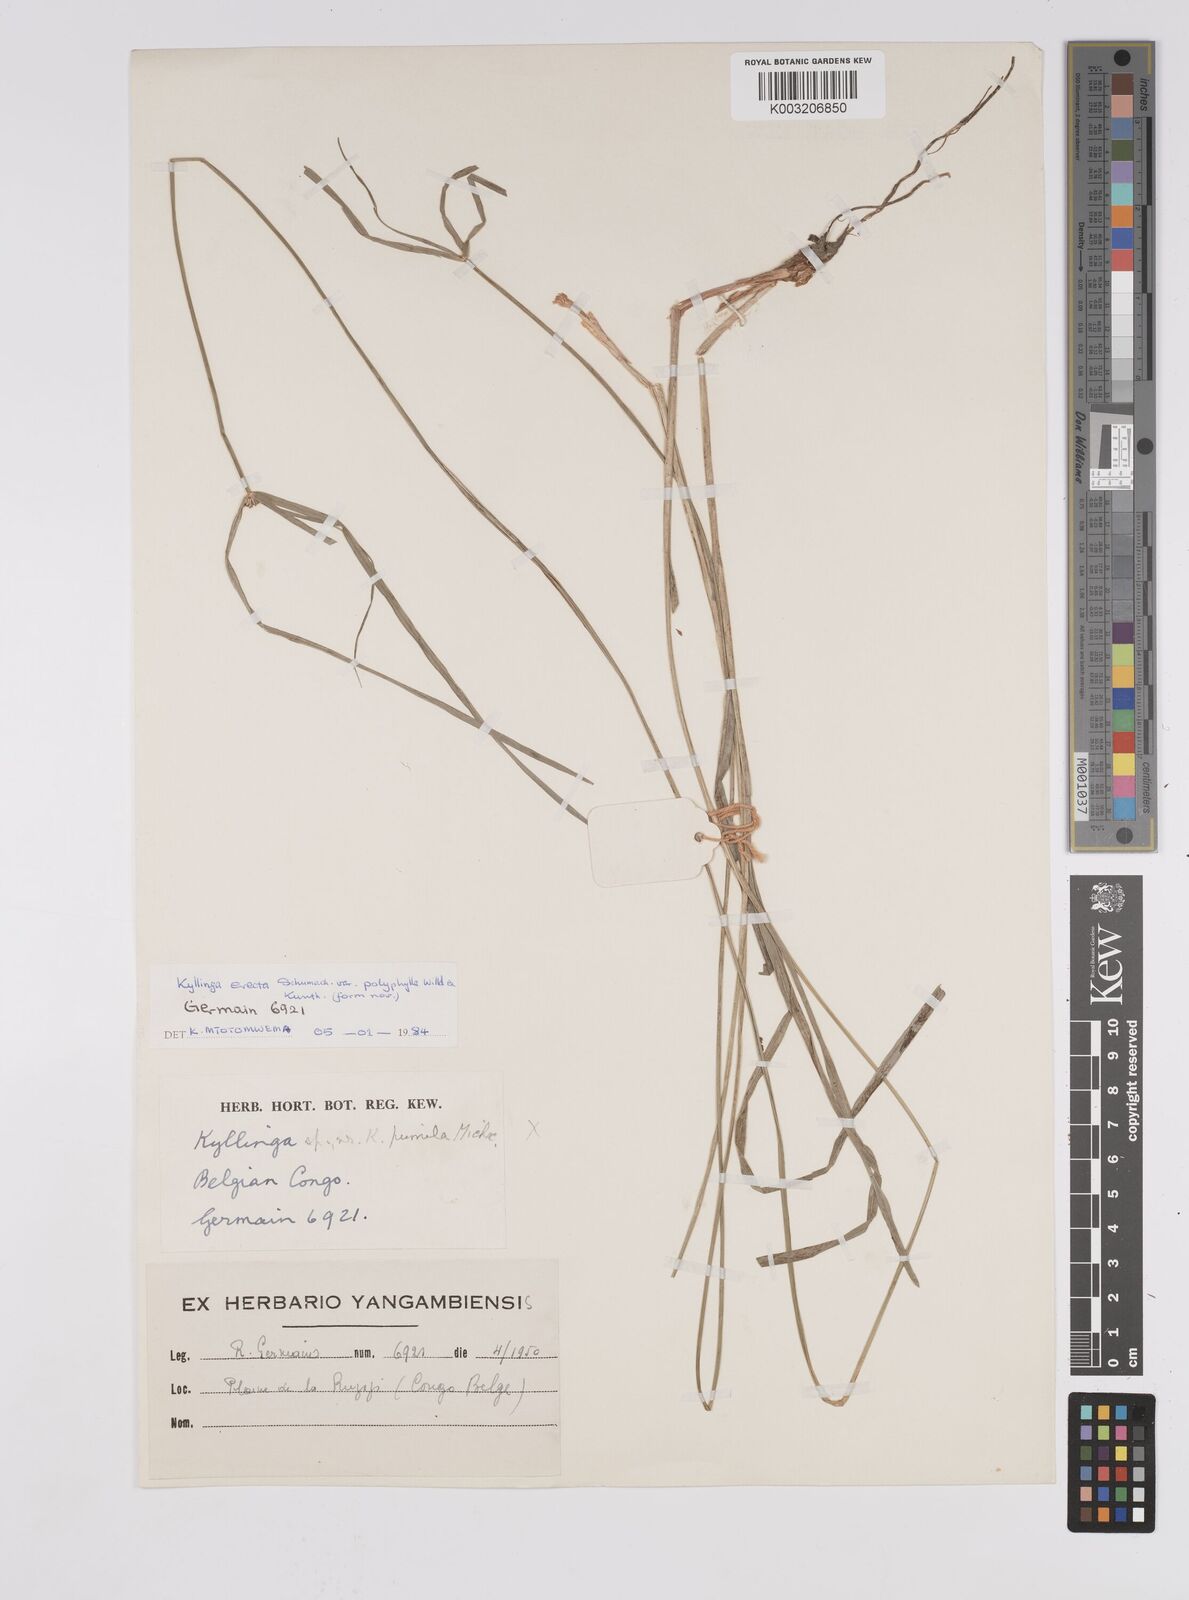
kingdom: Plantae
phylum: Tracheophyta
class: Liliopsida
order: Poales
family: Cyperaceae
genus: Cyperus
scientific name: Cyperus erectus
